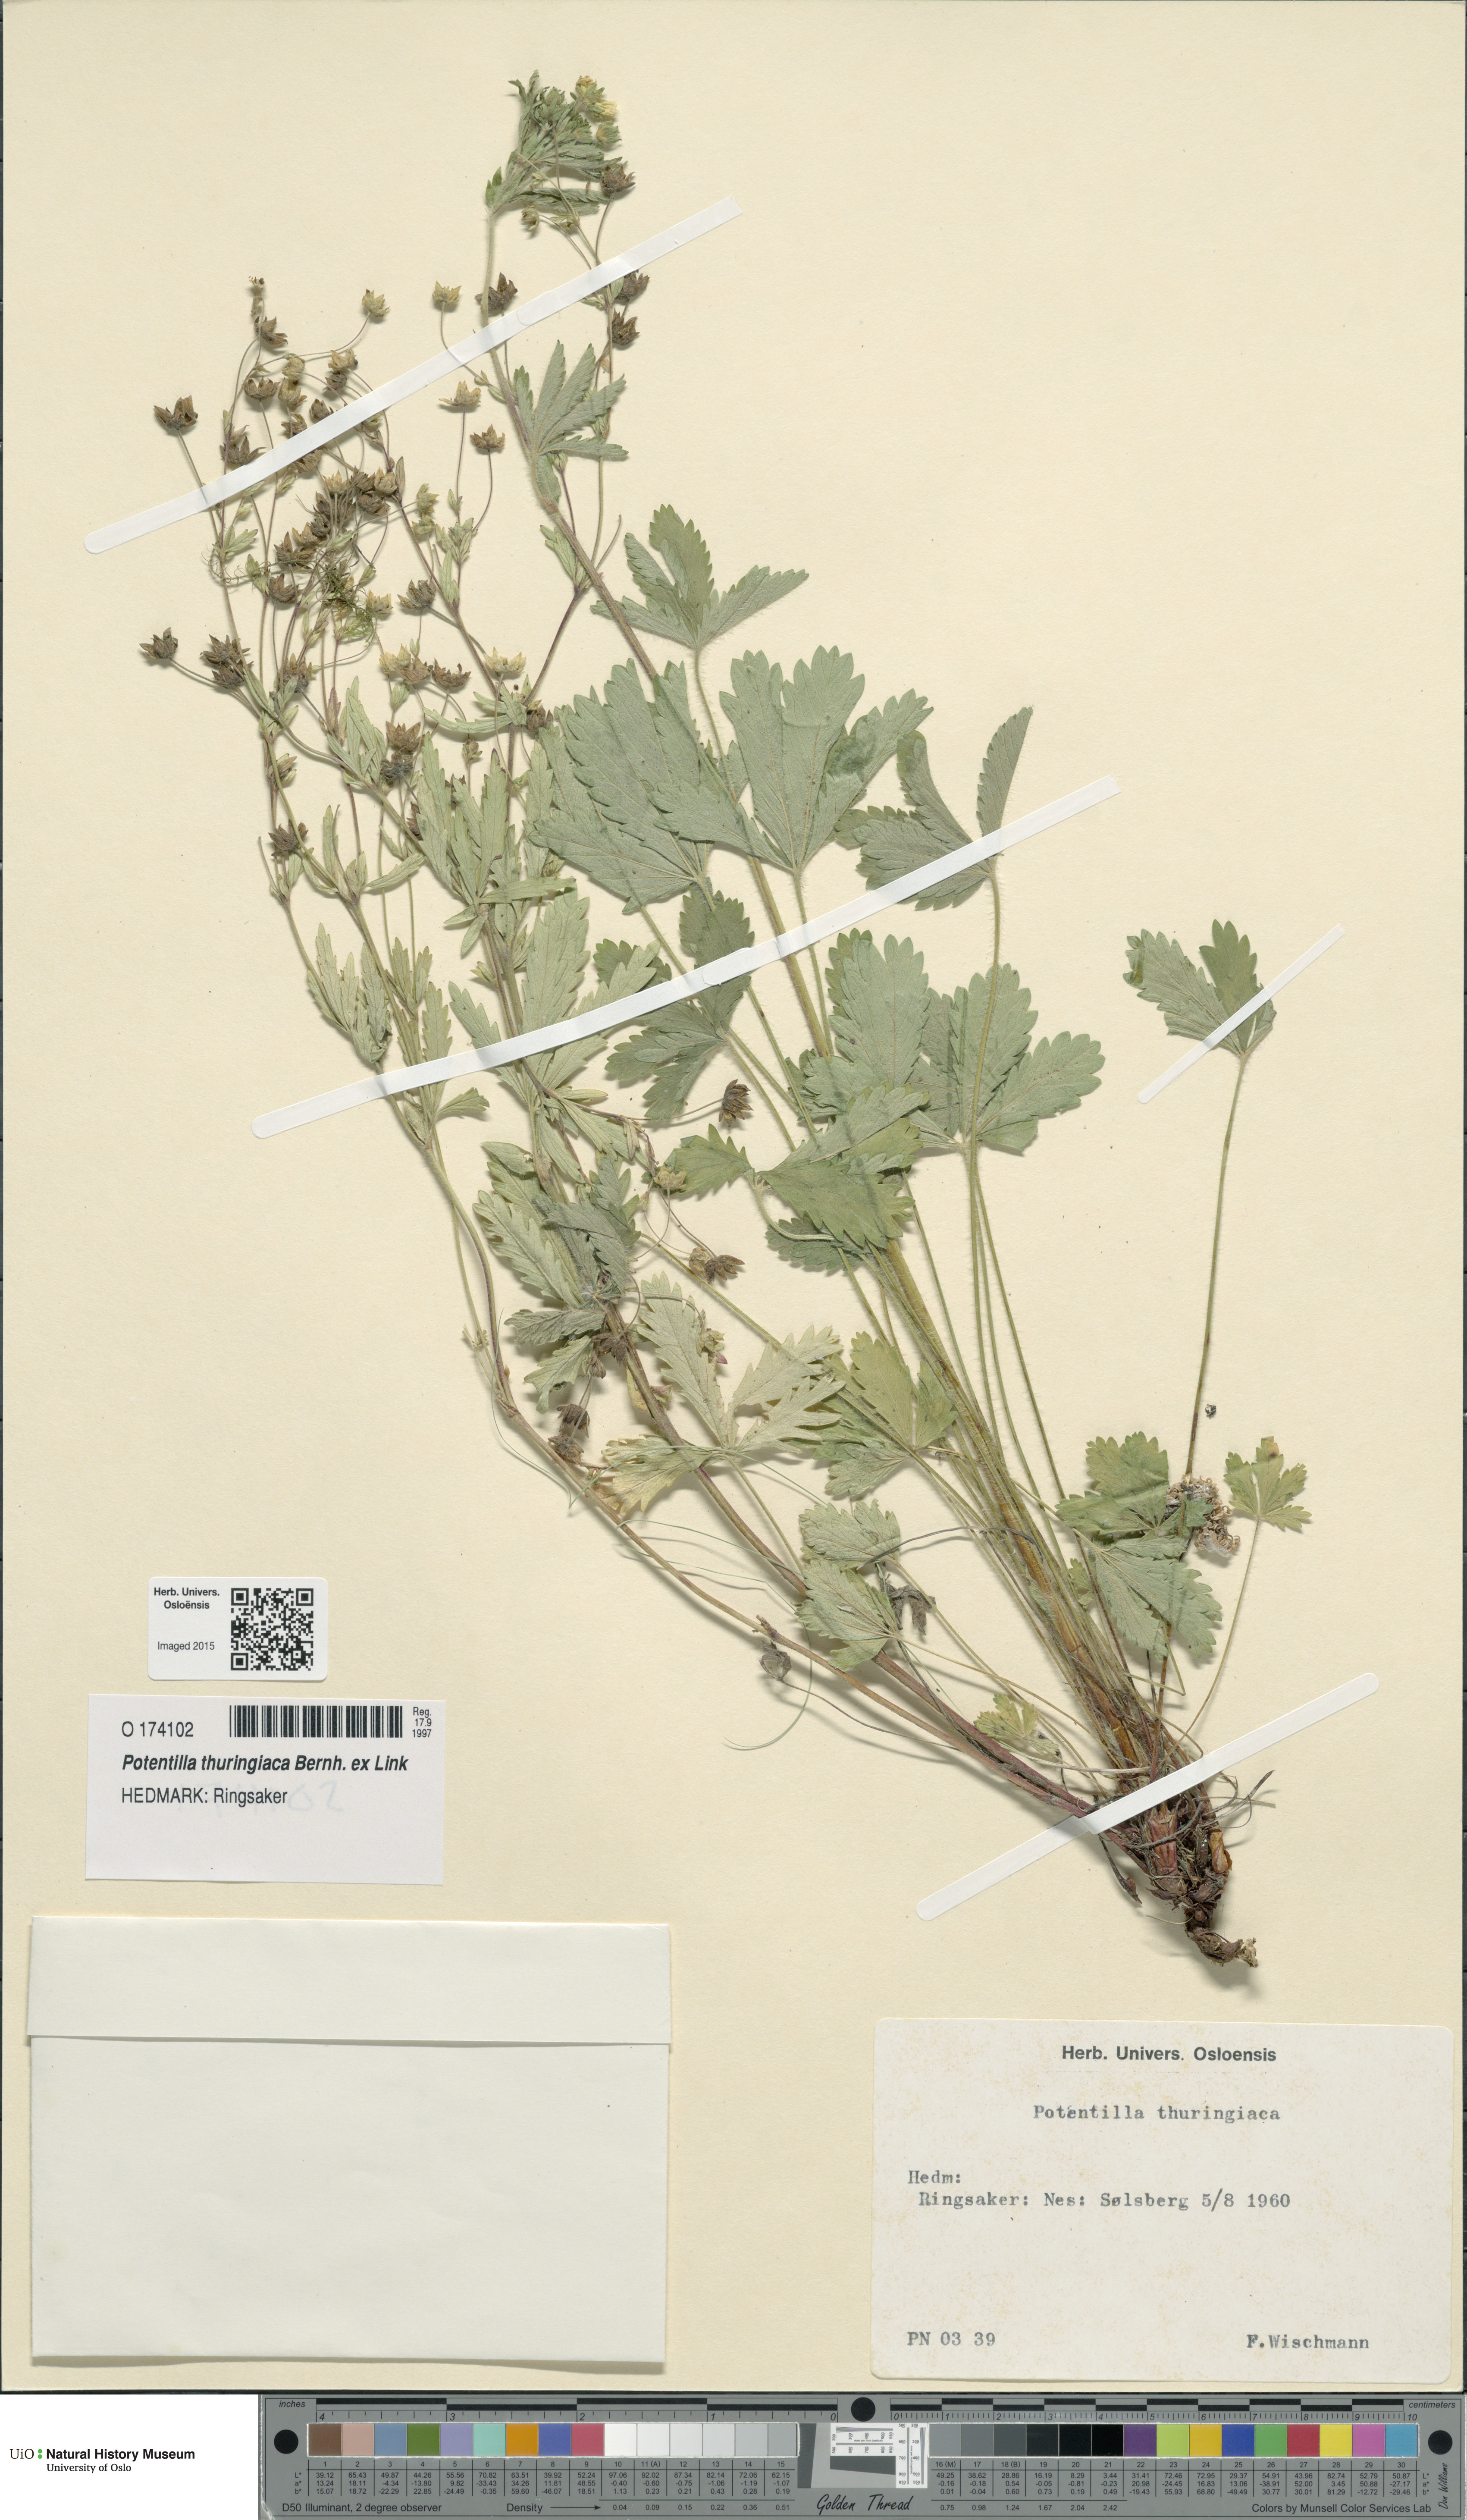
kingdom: Plantae
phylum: Tracheophyta
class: Magnoliopsida
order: Rosales
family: Rosaceae
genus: Potentilla
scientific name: Potentilla thuringiaca
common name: European cinquefoil
